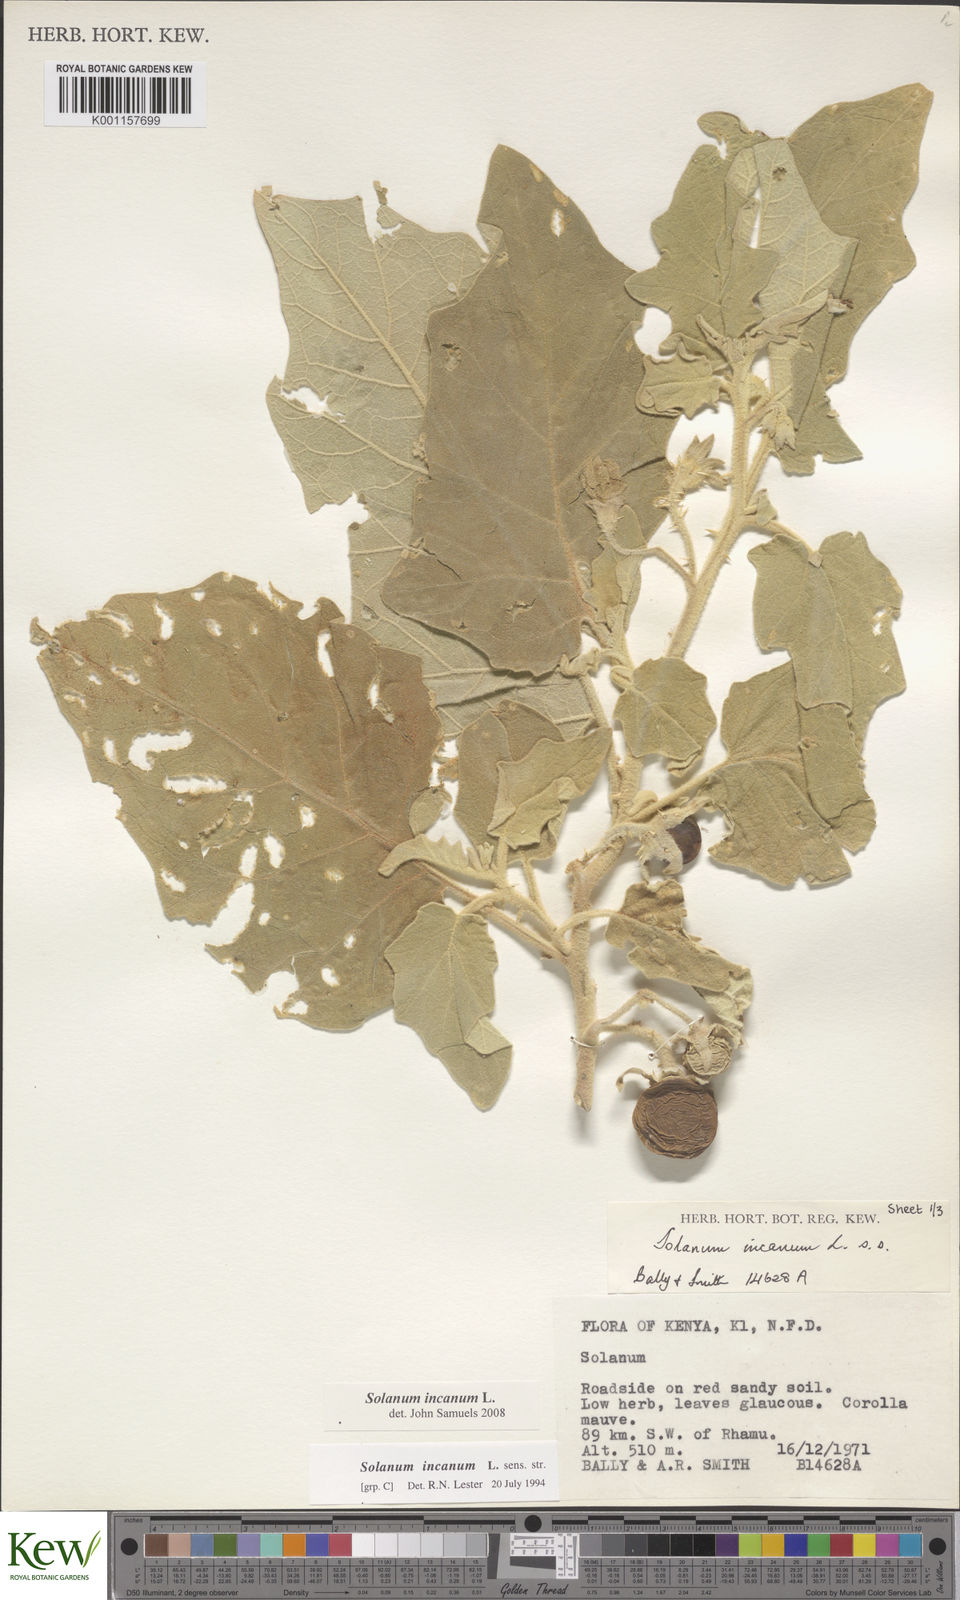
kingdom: Plantae
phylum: Tracheophyta
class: Magnoliopsida
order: Solanales
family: Solanaceae
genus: Solanum
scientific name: Solanum incanum
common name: Bitter apple
